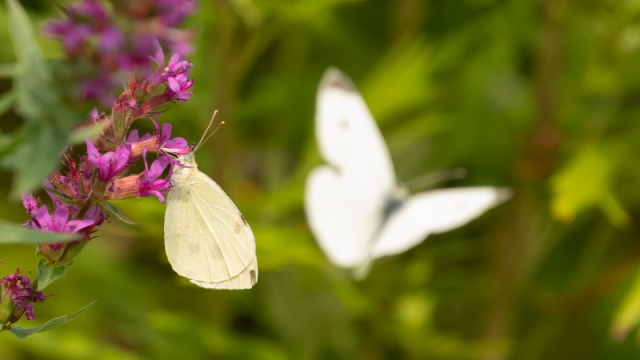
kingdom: Animalia
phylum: Arthropoda
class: Insecta
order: Lepidoptera
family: Pieridae
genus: Pieris
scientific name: Pieris rapae
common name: Cabbage White
